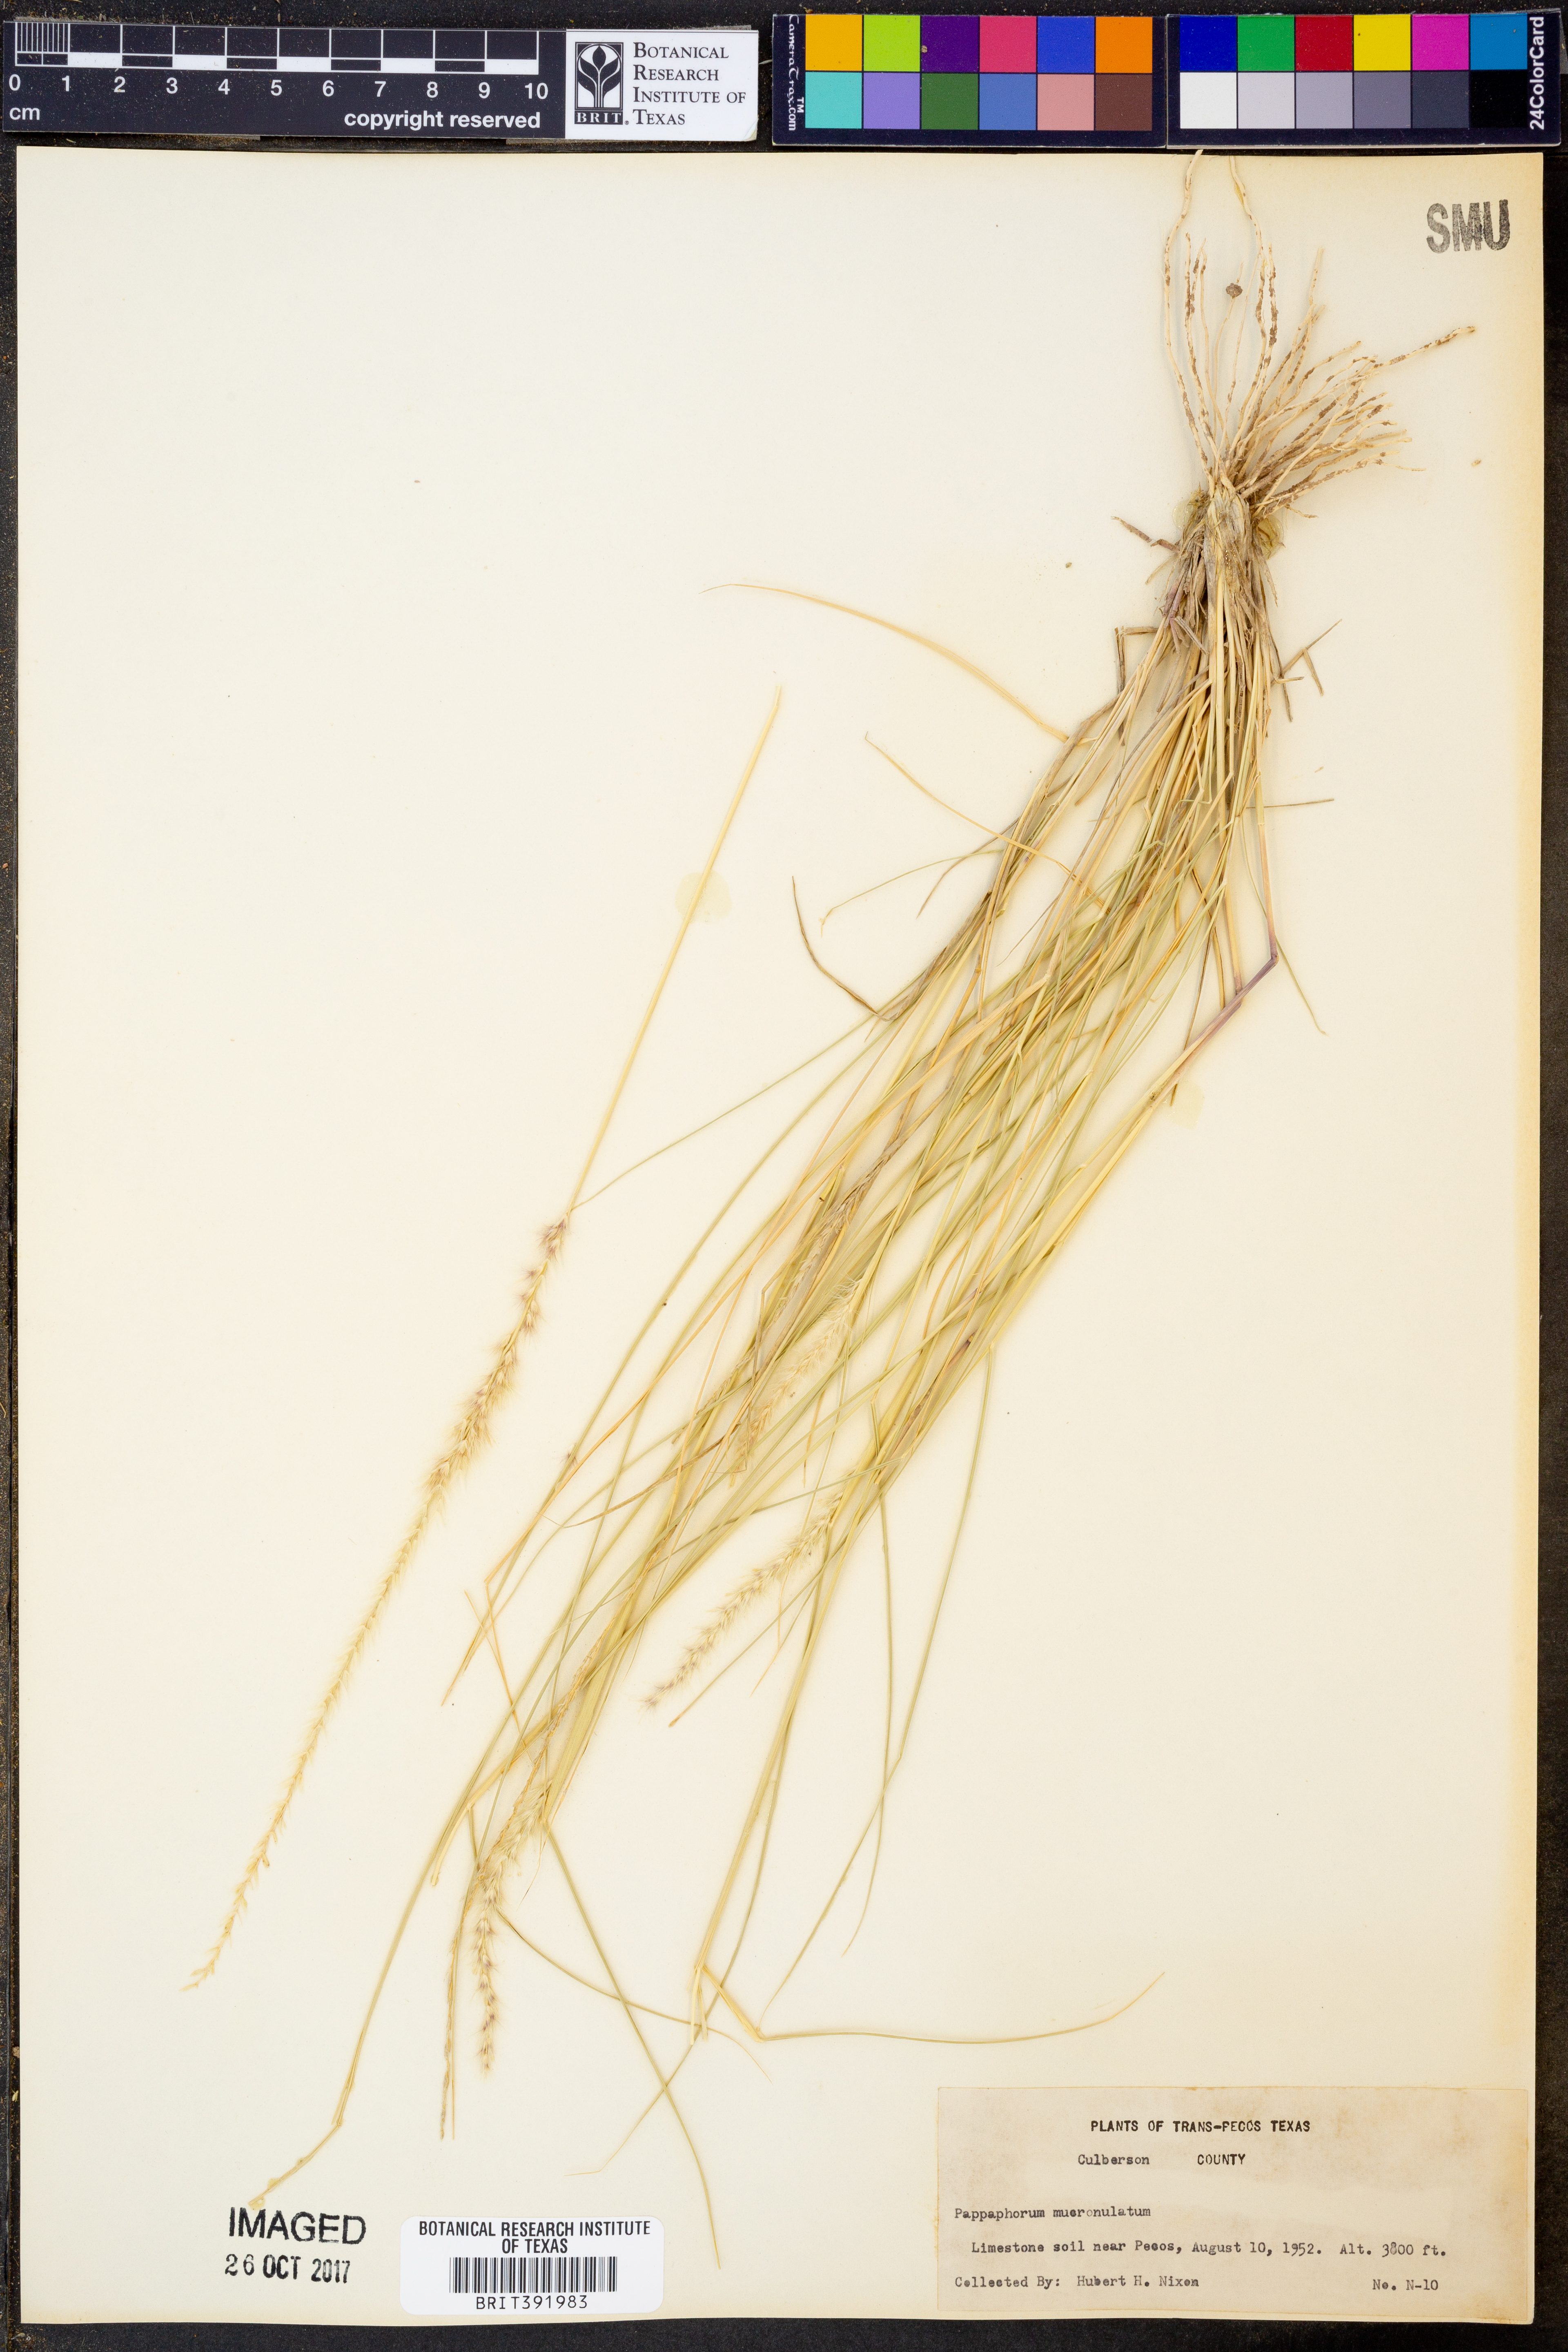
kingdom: Plantae
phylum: Tracheophyta
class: Liliopsida
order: Poales
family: Poaceae
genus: Pappophorum
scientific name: Pappophorum mucronulatum
